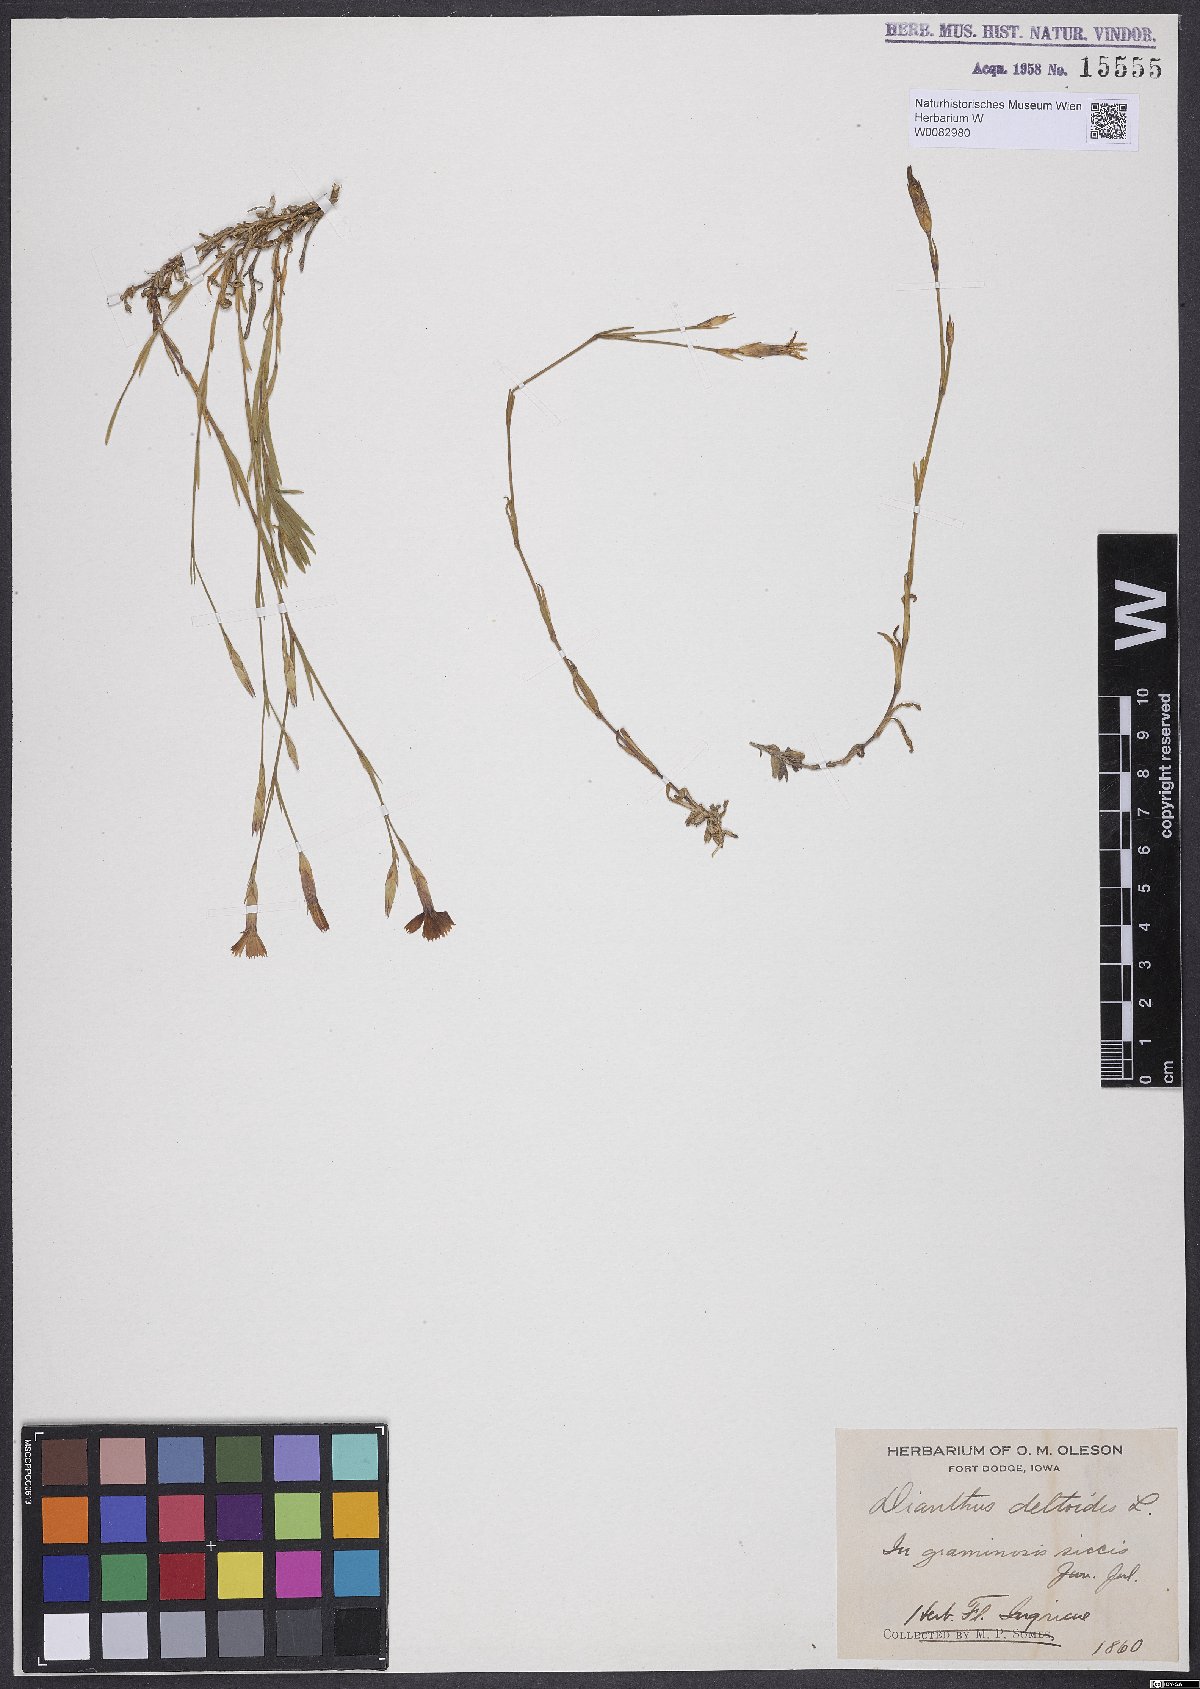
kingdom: Plantae
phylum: Tracheophyta
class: Magnoliopsida
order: Caryophyllales
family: Caryophyllaceae
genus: Dianthus
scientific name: Dianthus deltoides
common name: Maiden pink
